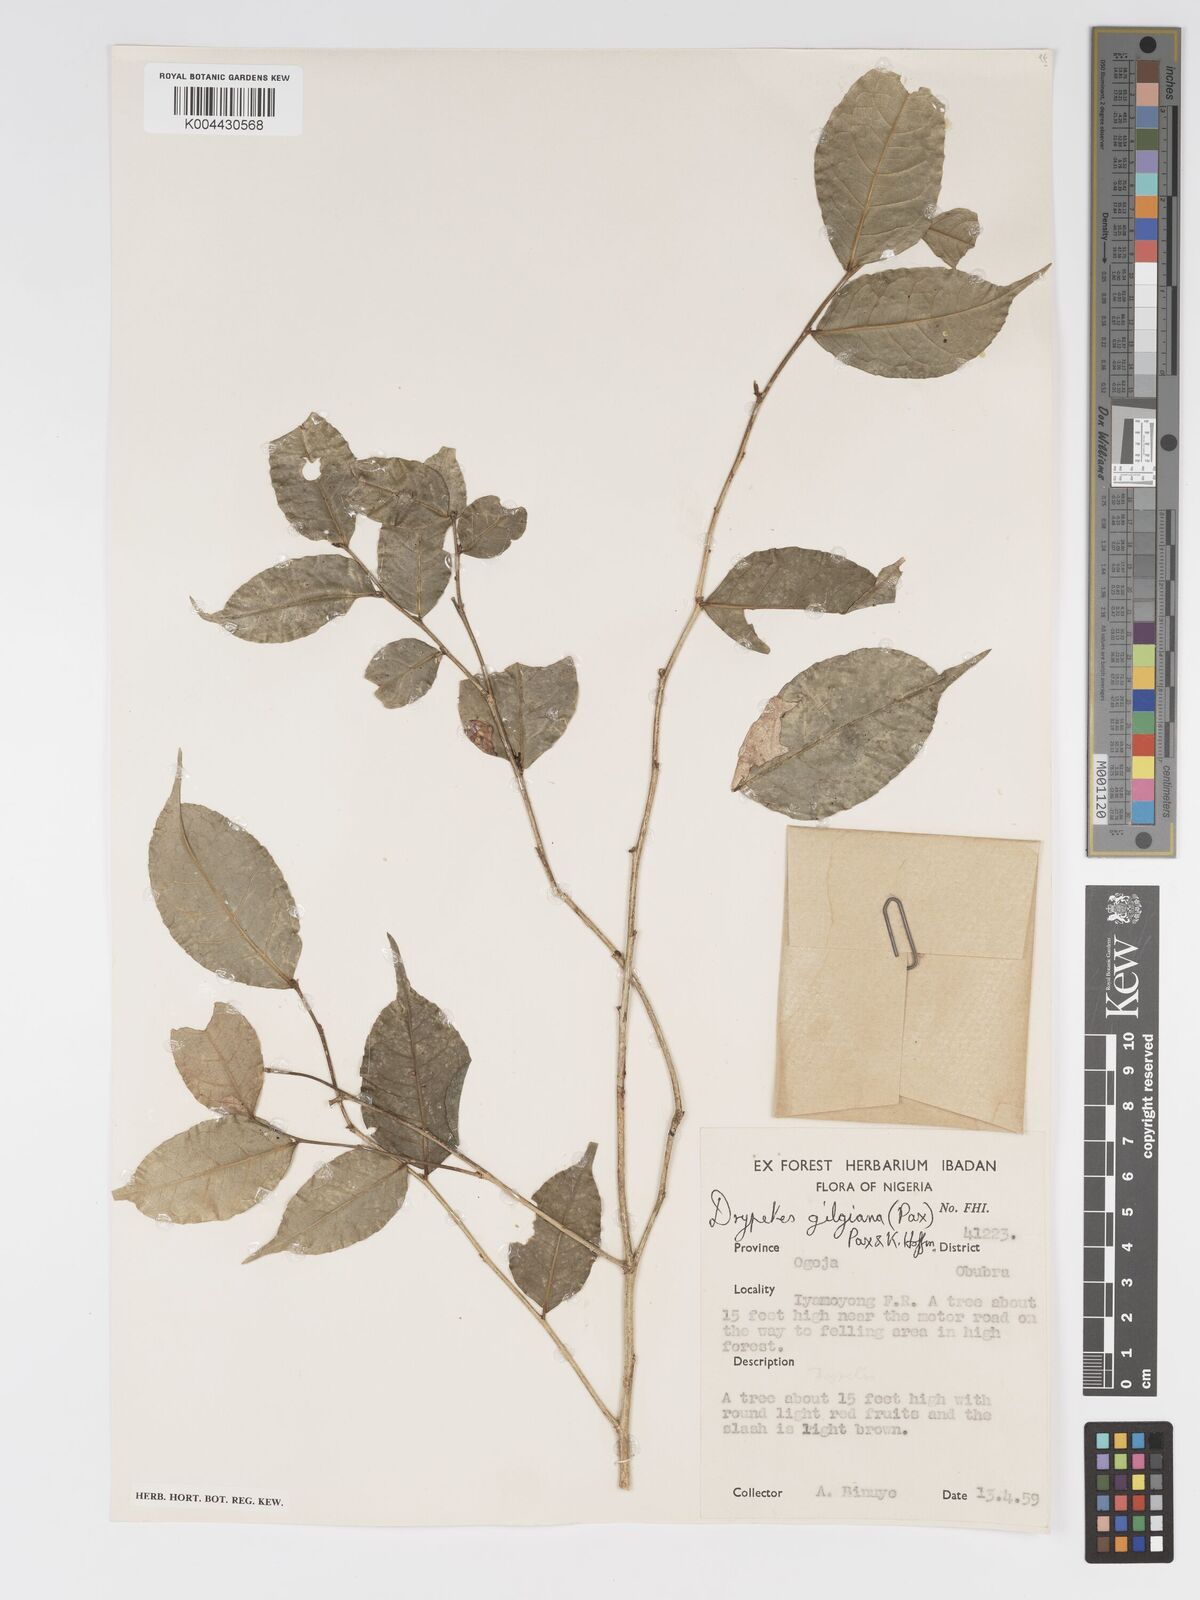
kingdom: Plantae
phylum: Tracheophyta
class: Magnoliopsida
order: Malpighiales
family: Putranjivaceae
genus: Drypetes
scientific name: Drypetes gilgiana
